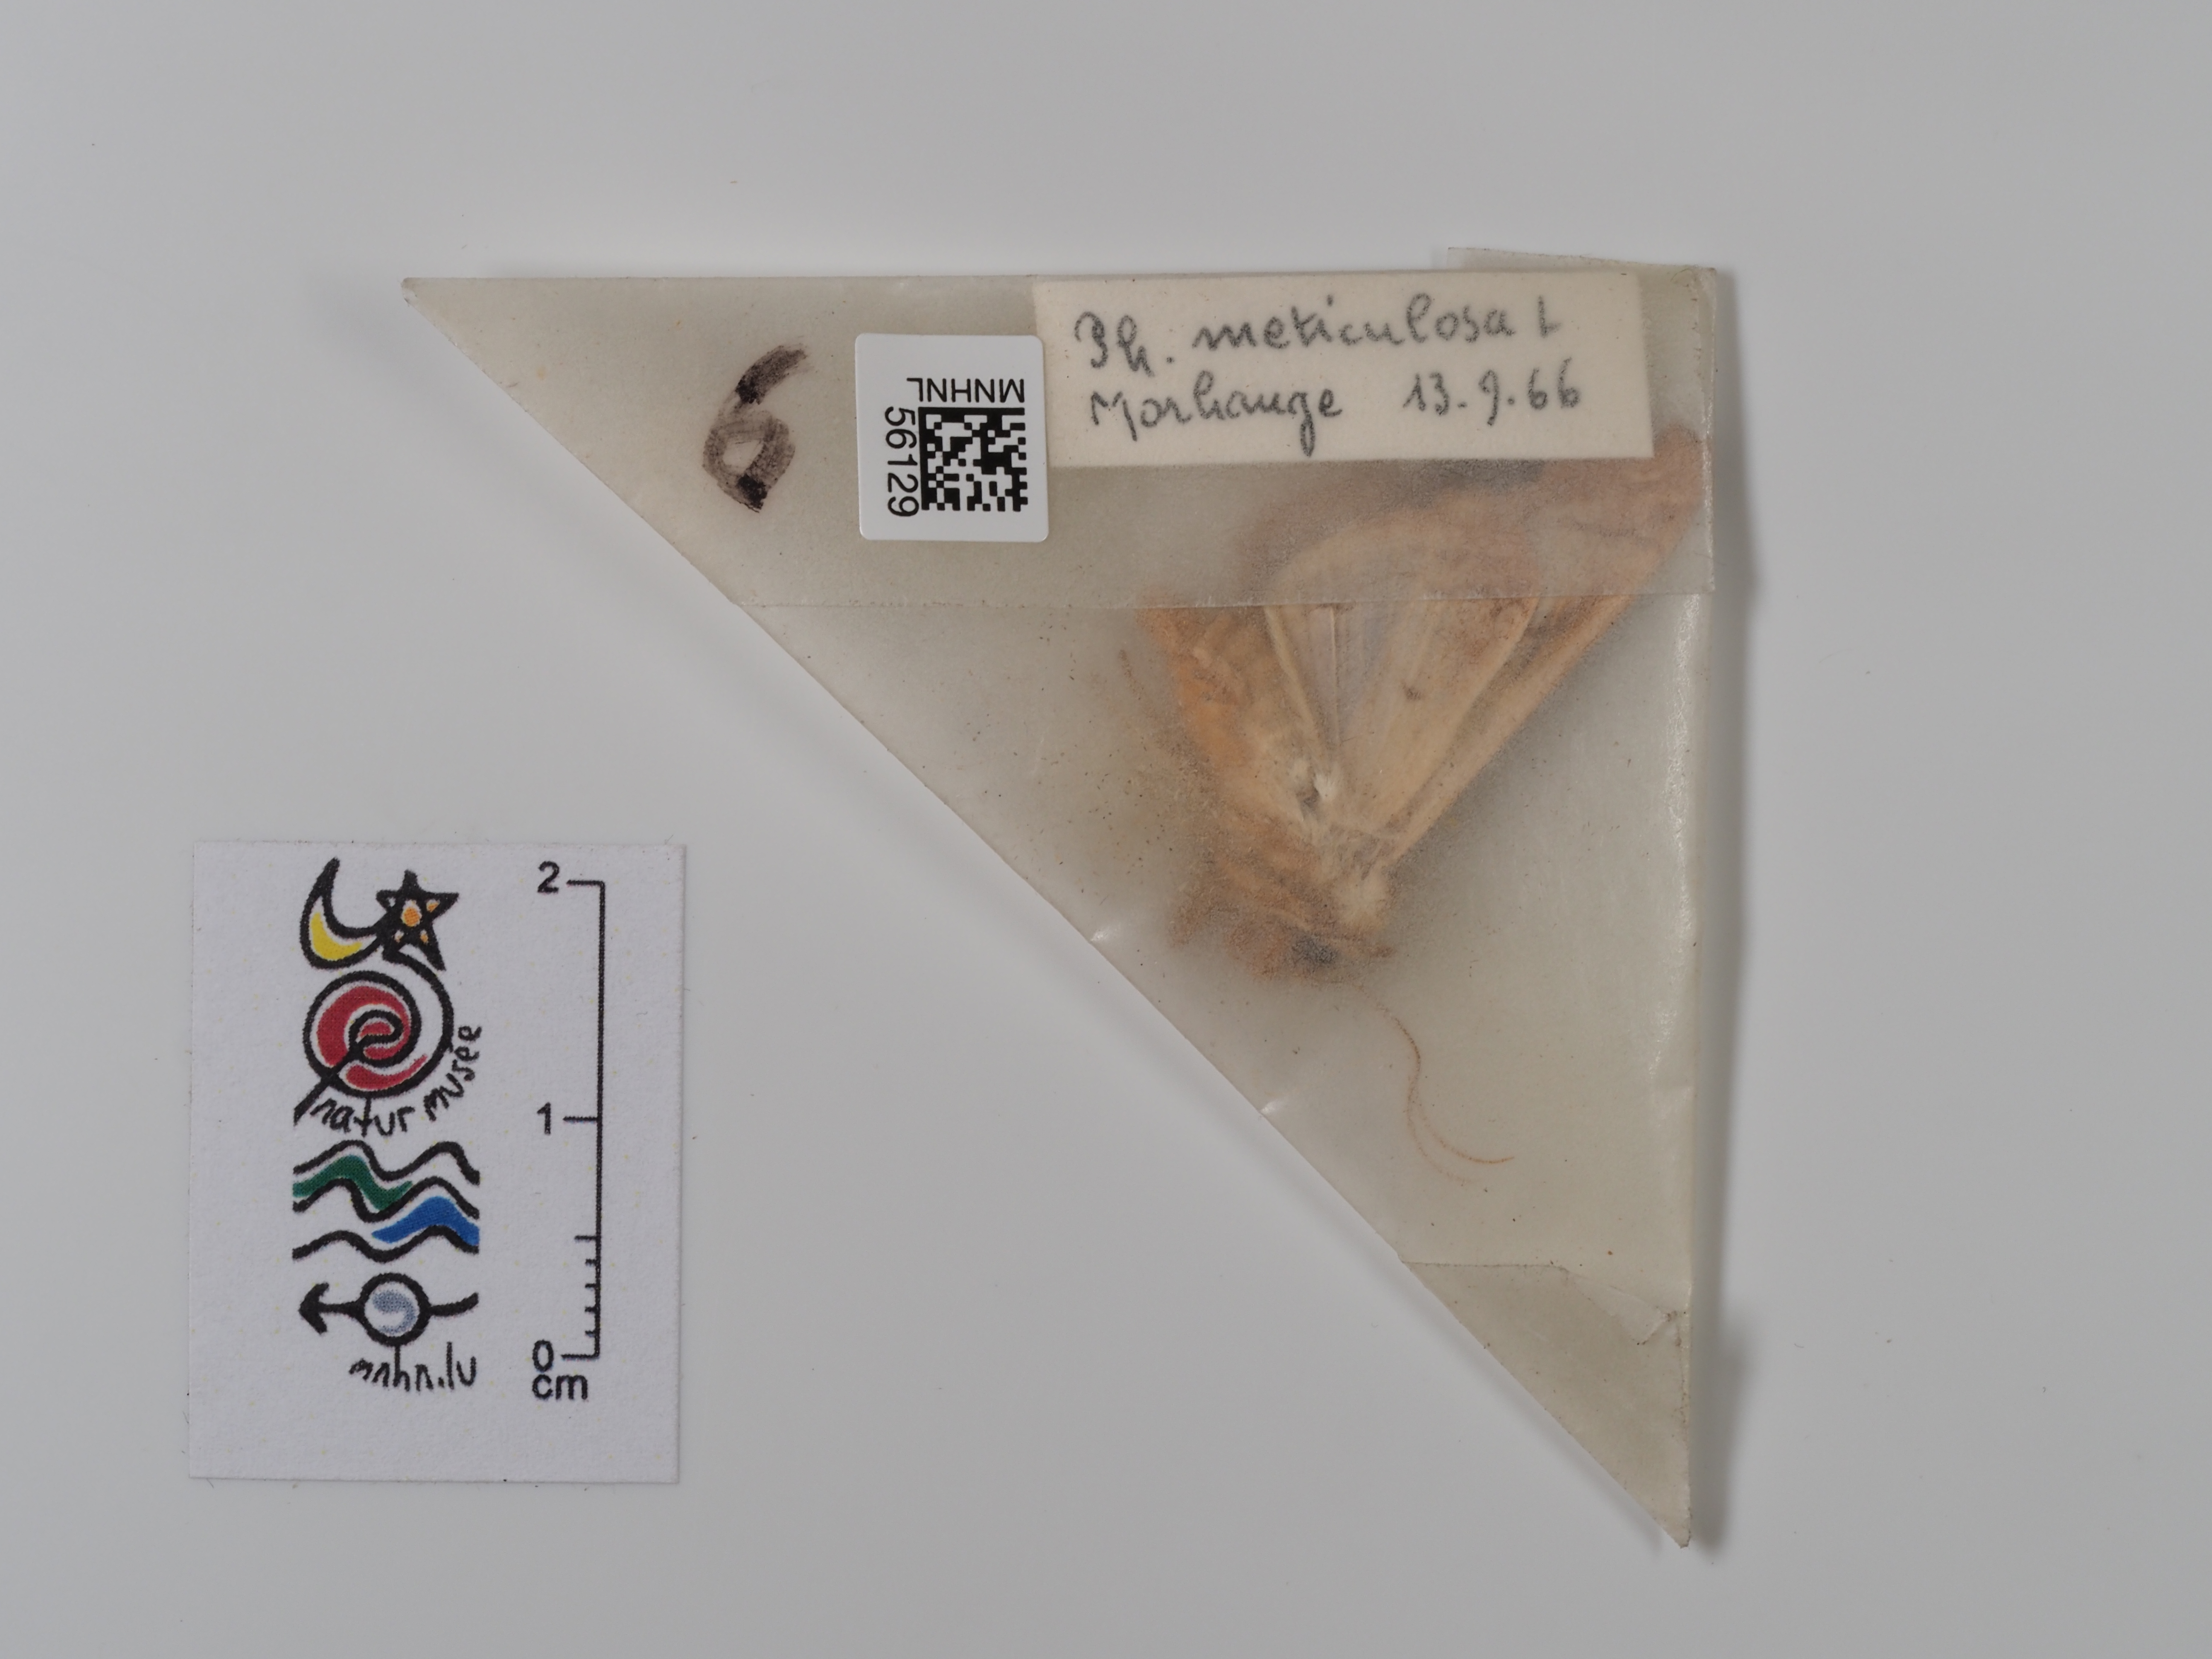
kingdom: Animalia
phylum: Arthropoda
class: Insecta
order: Lepidoptera
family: Noctuidae
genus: Phlogophora
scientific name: Phlogophora meticulosa
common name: Angle shades
